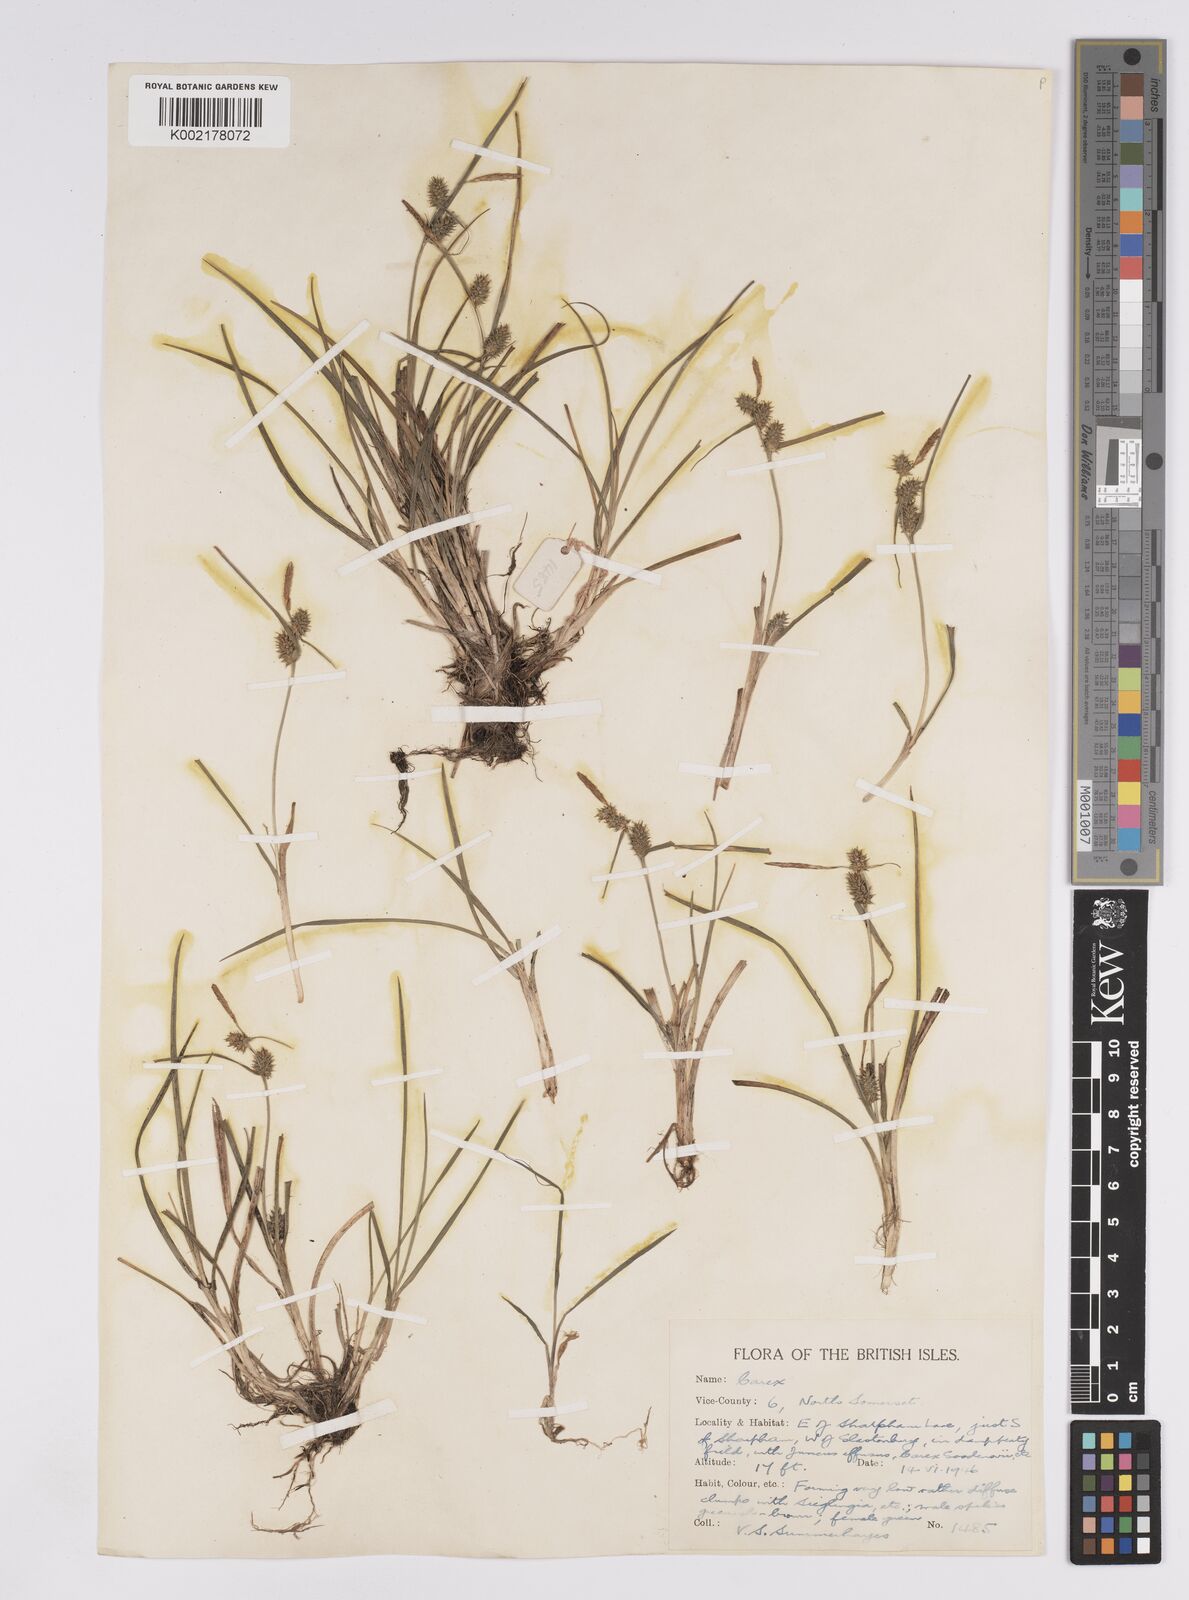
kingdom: Plantae
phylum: Tracheophyta
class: Liliopsida
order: Poales
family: Cyperaceae
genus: Carex
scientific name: Carex demissa
